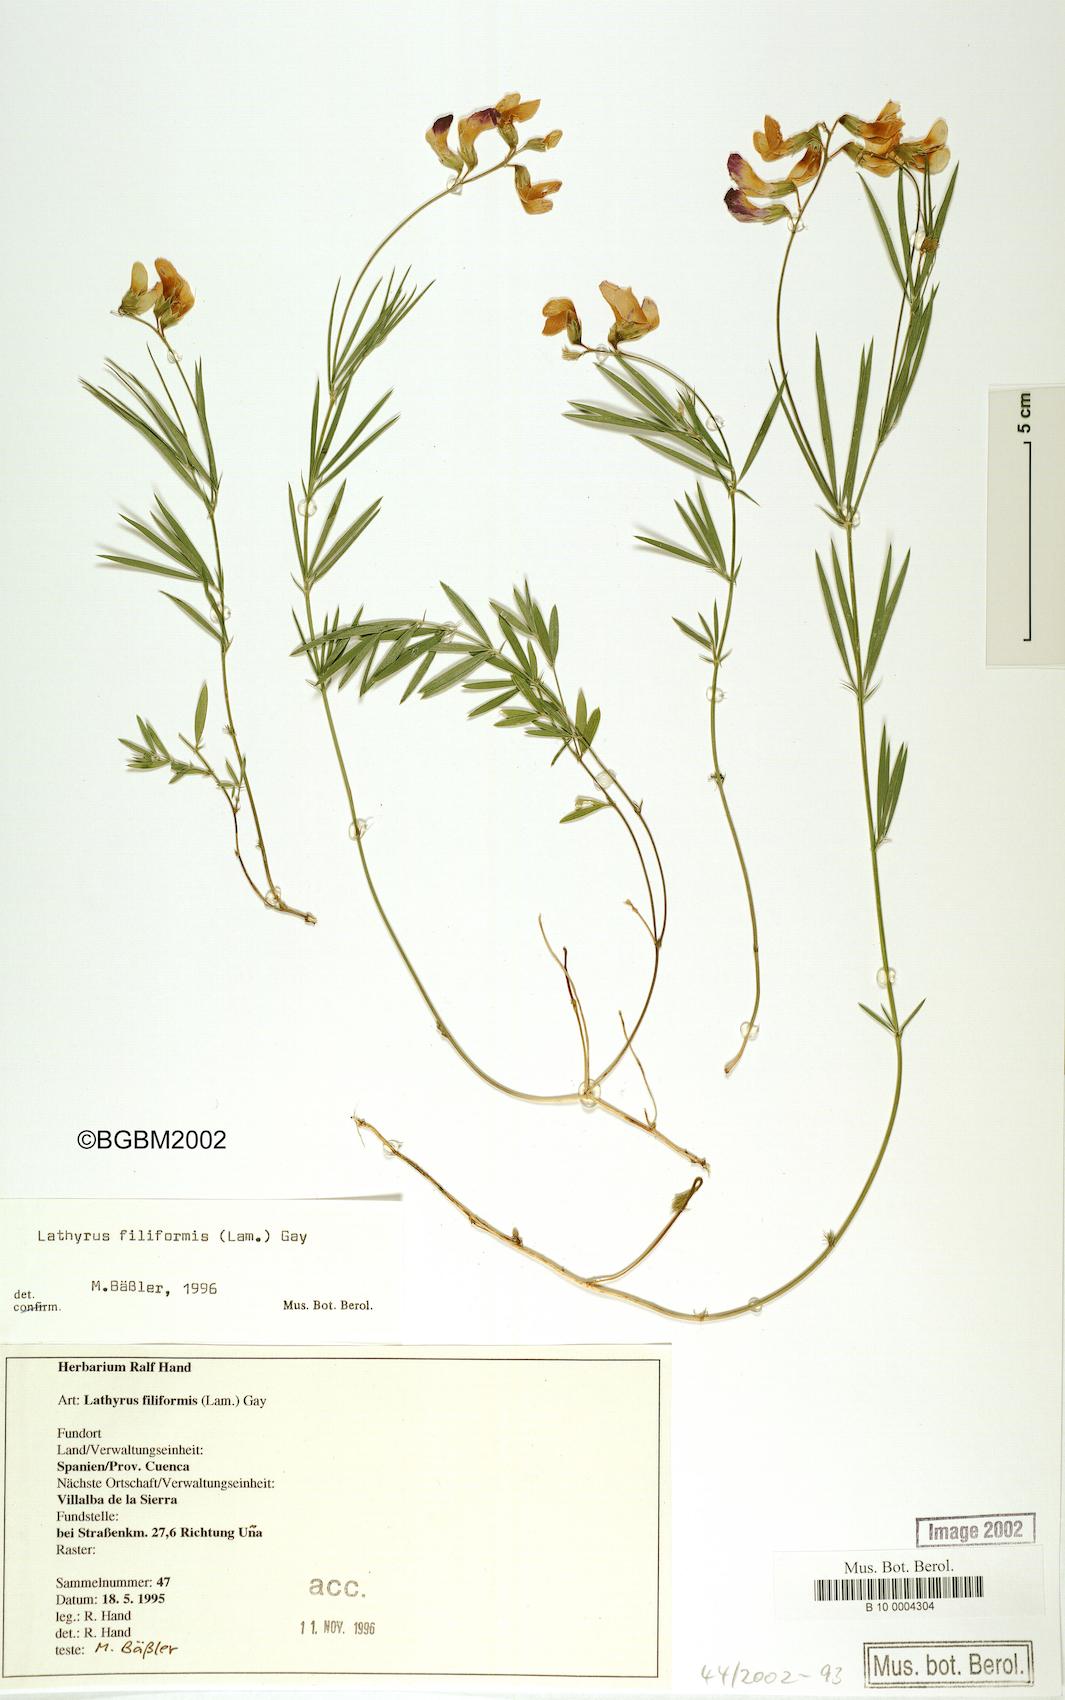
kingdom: Plantae
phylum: Tracheophyta
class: Magnoliopsida
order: Fabales
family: Fabaceae
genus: Lathyrus
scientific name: Lathyrus filiformis
